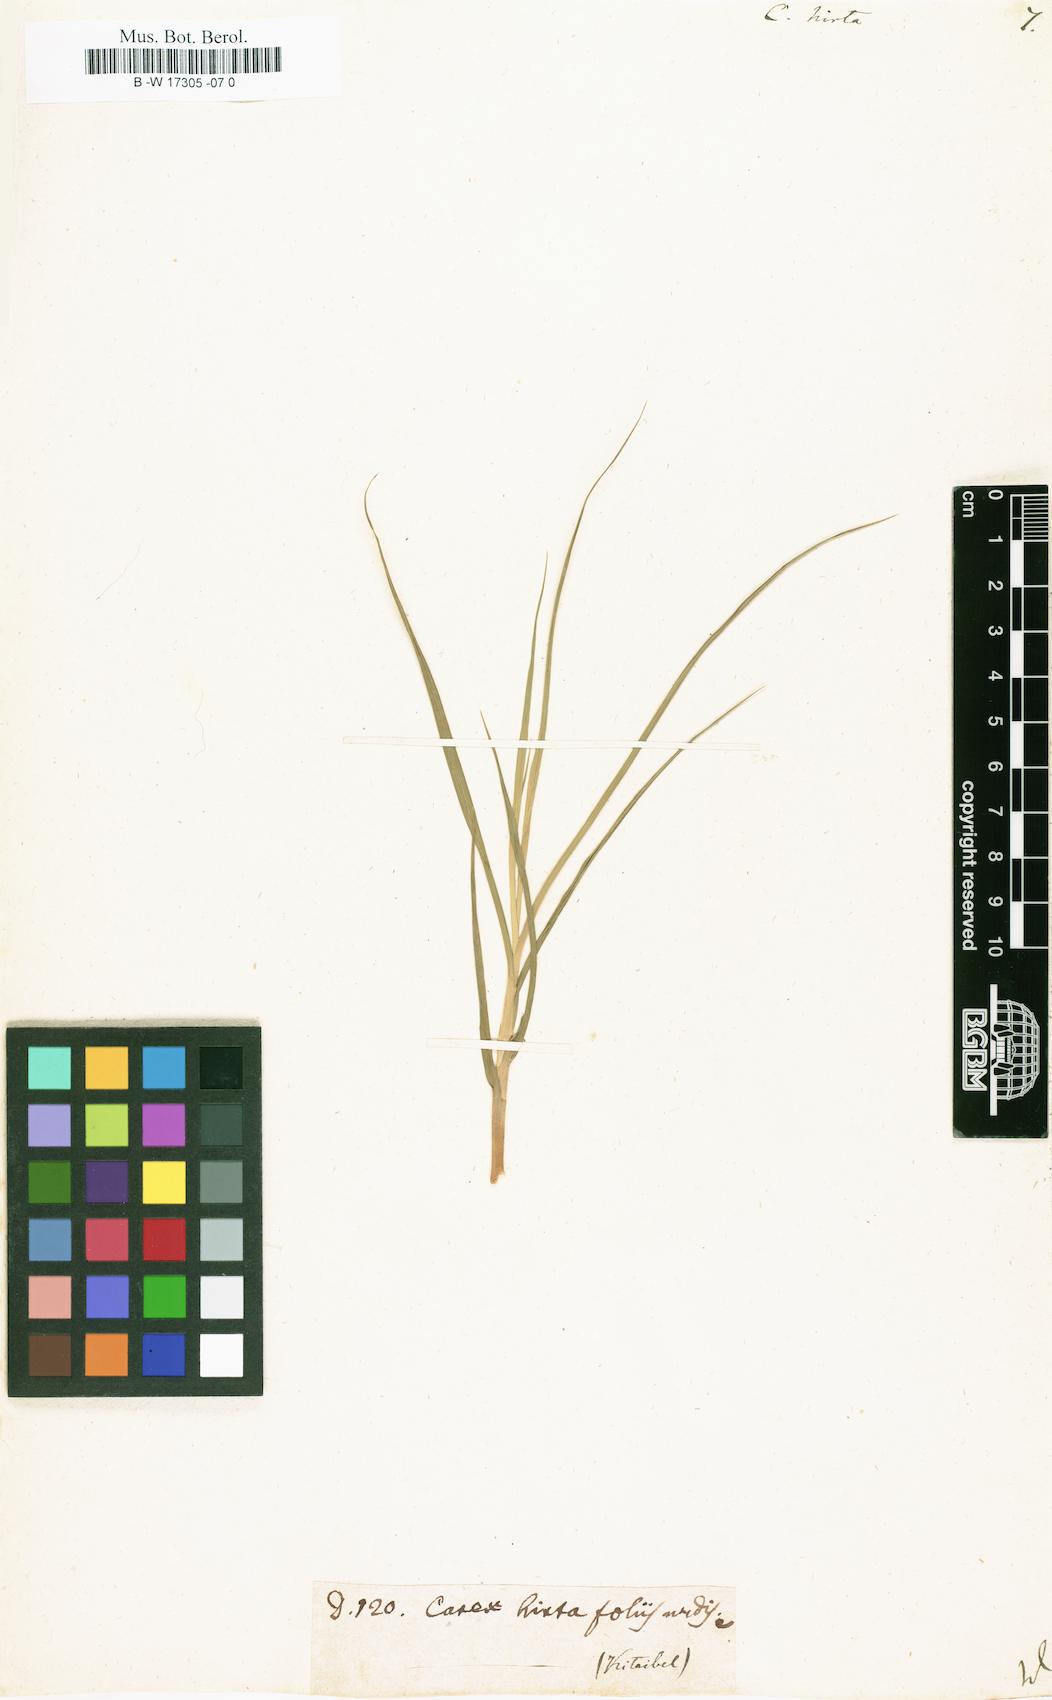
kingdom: Plantae
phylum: Tracheophyta
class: Liliopsida
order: Poales
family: Cyperaceae
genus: Carex
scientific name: Carex hirta
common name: Hairy sedge
